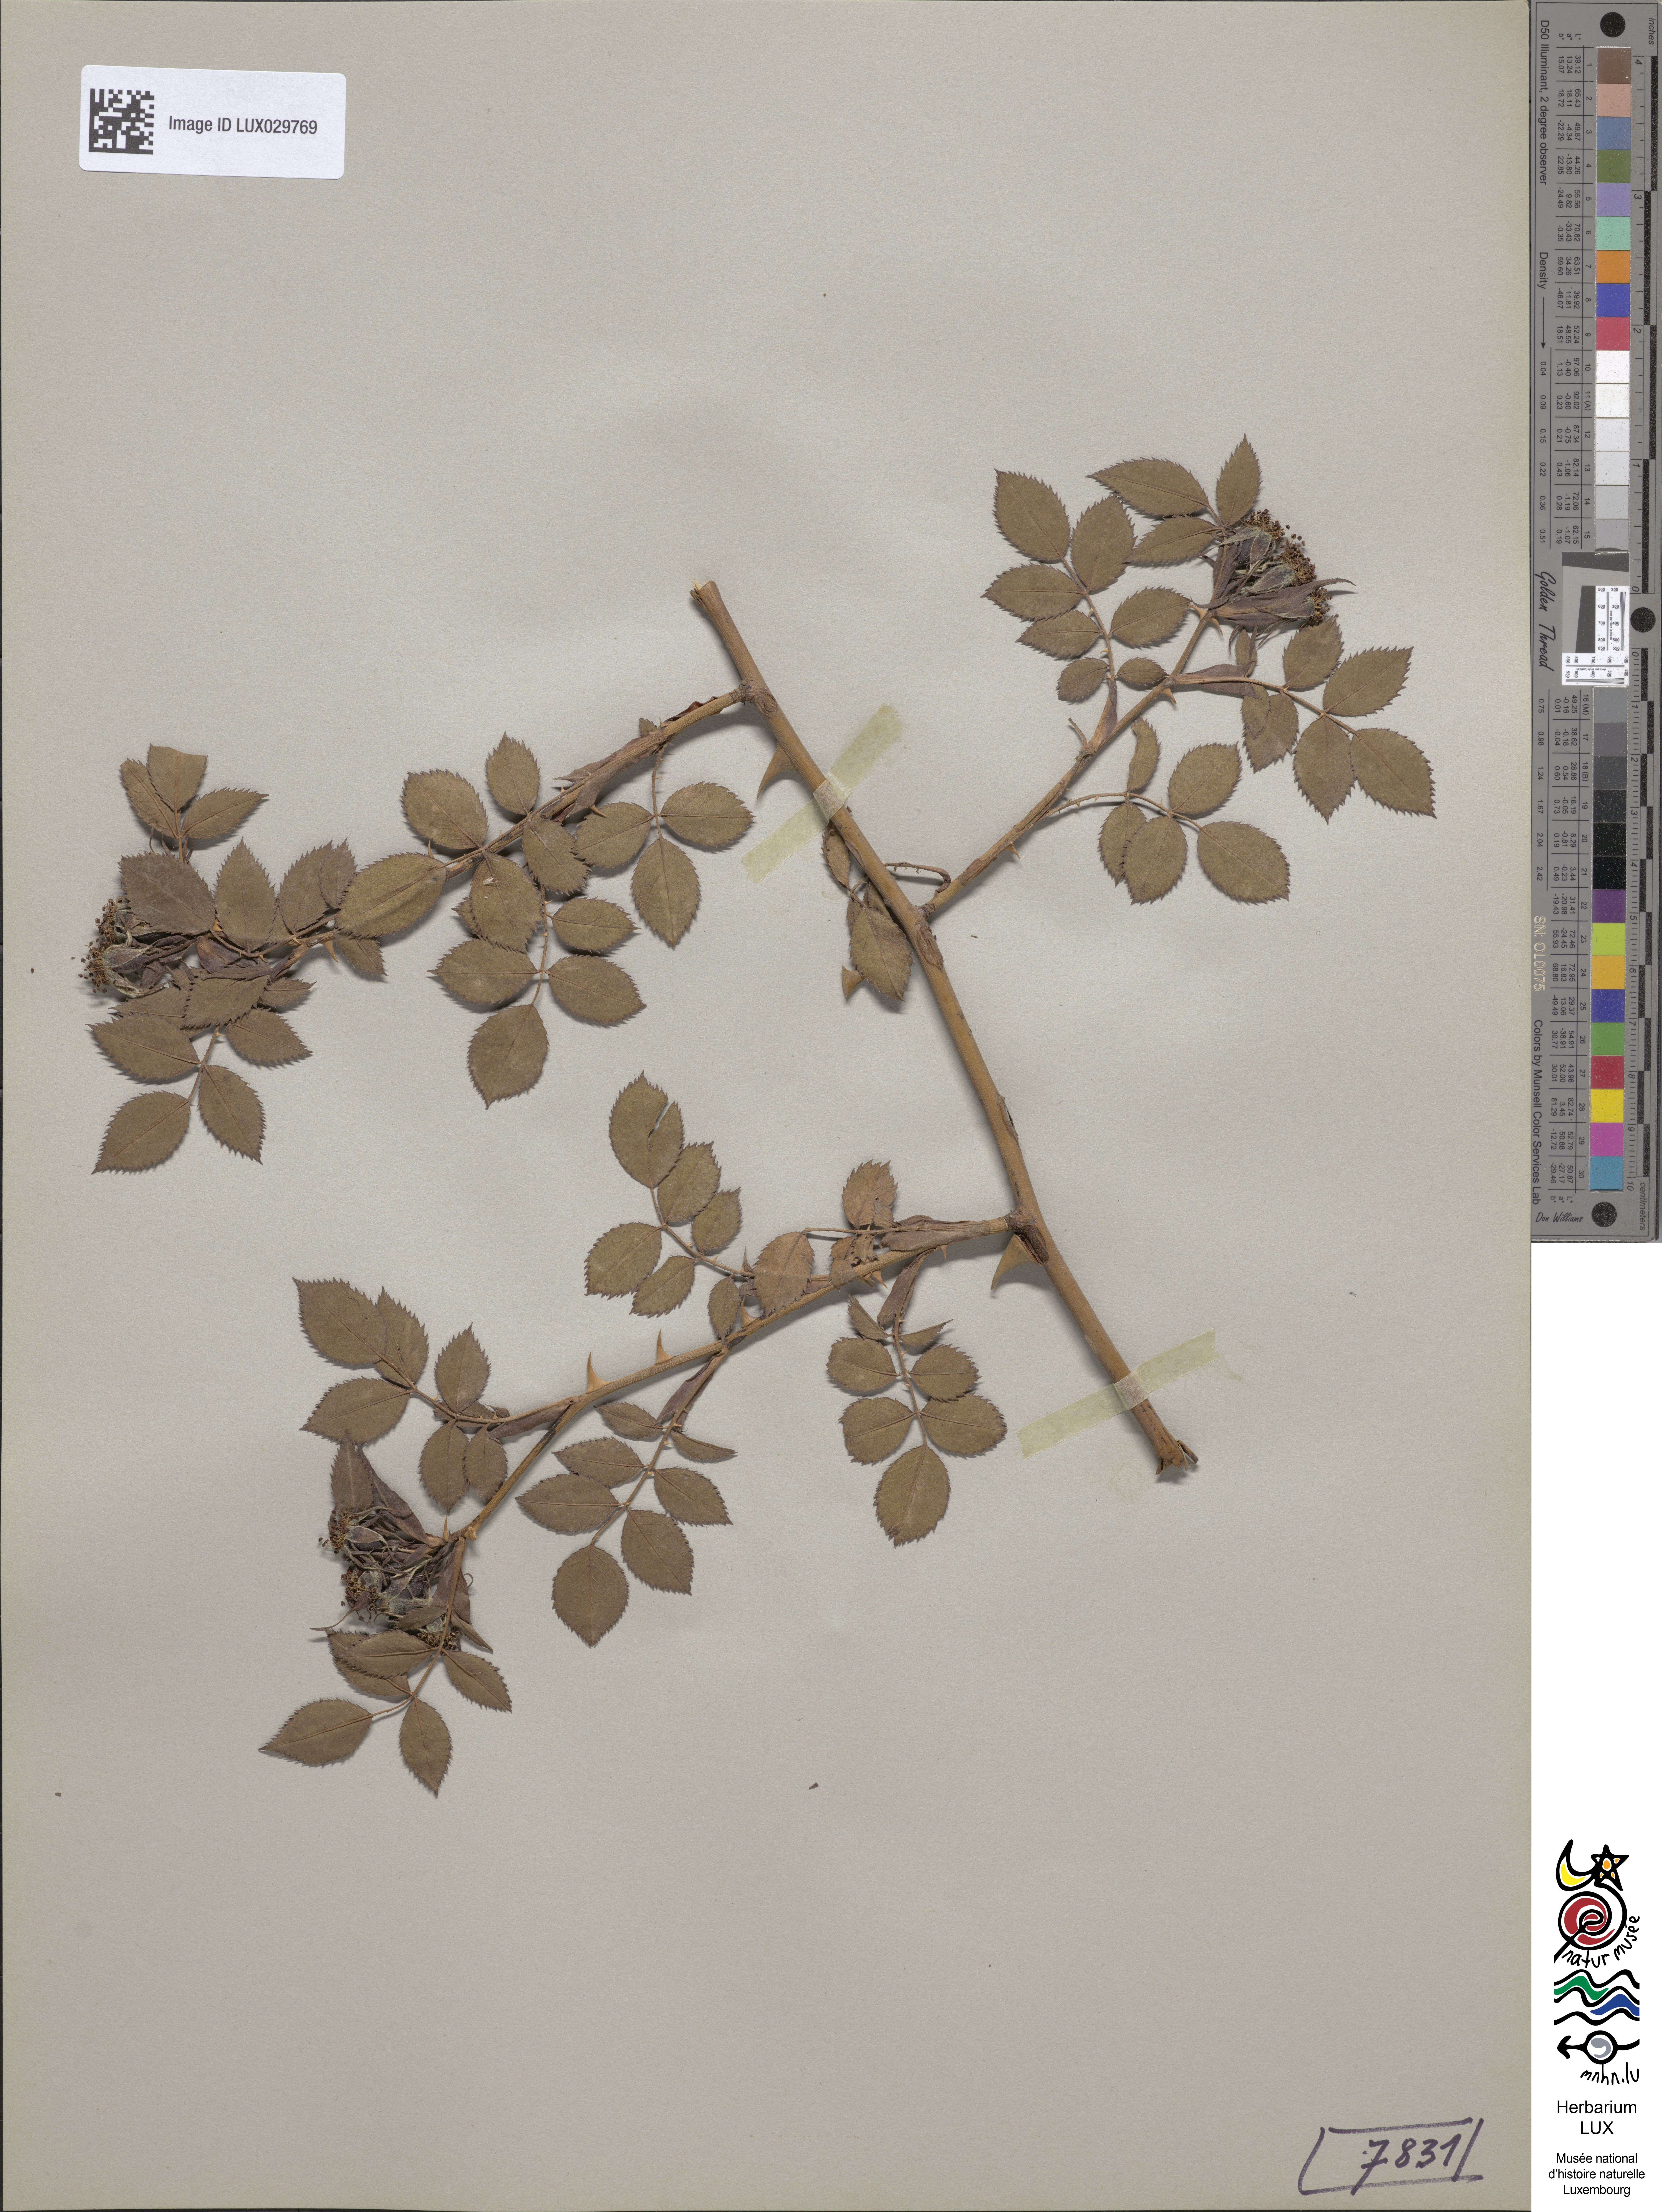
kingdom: Plantae
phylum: Tracheophyta
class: Magnoliopsida
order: Rosales
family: Rosaceae
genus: Rosa
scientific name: Rosa canina
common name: Dog rose
